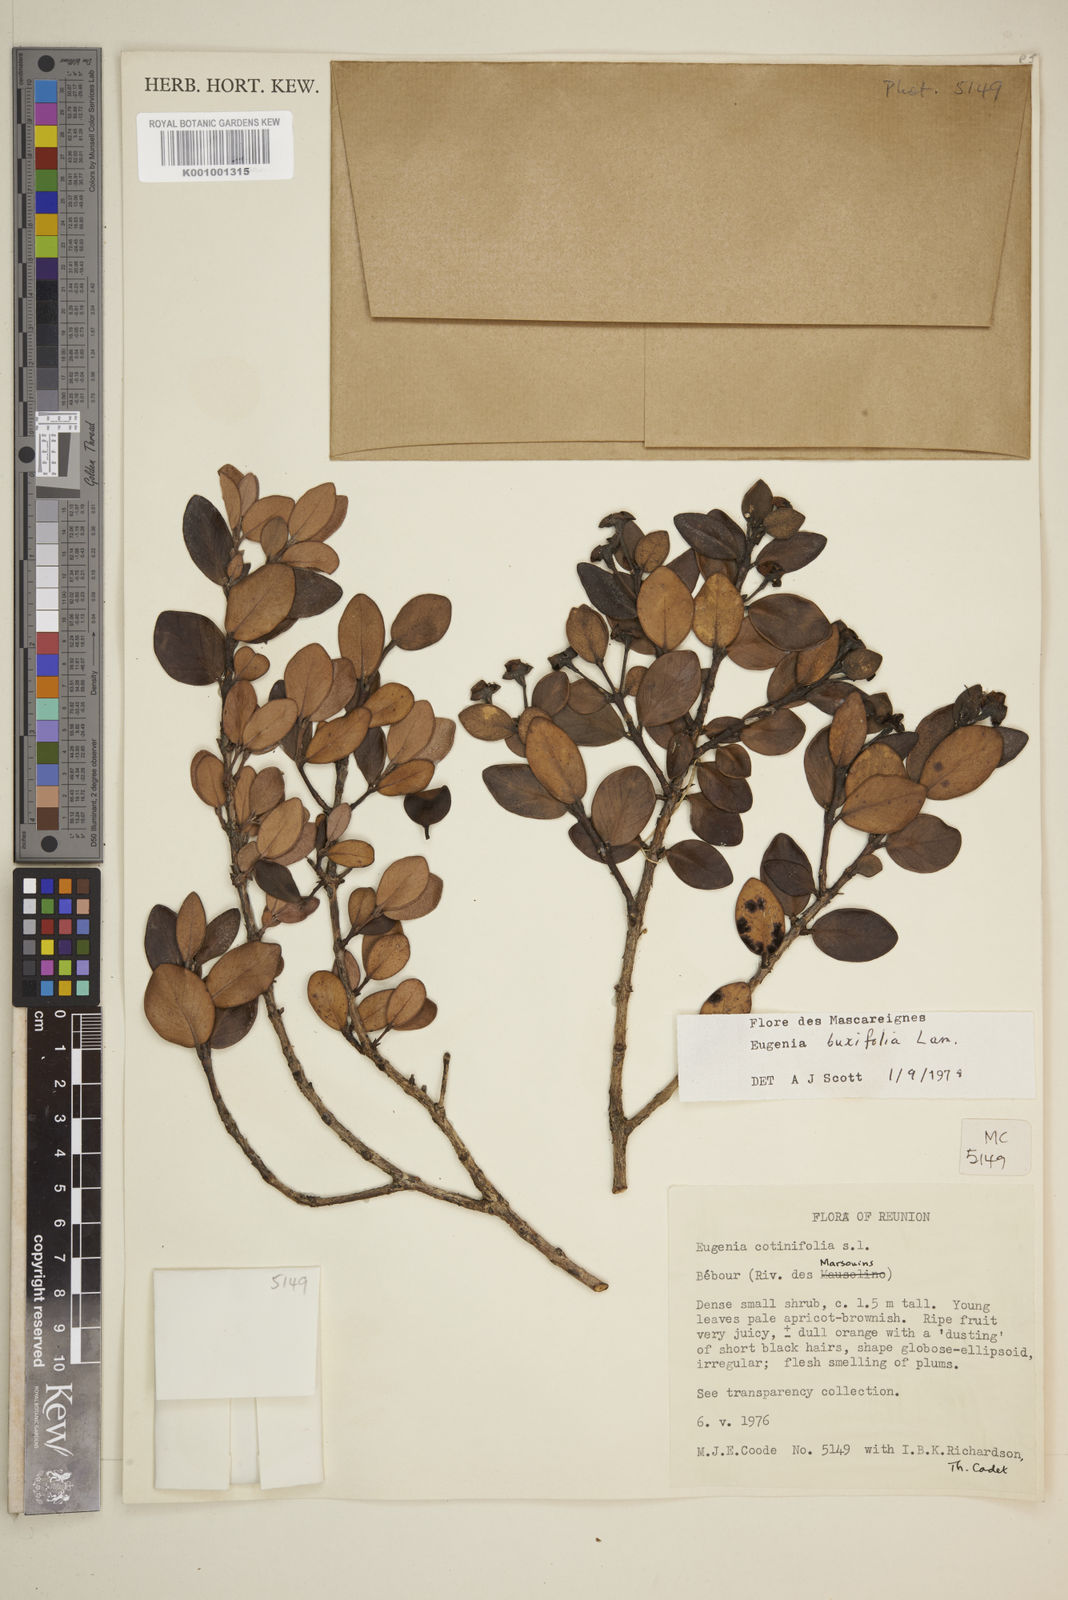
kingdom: Plantae
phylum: Tracheophyta
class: Magnoliopsida
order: Myrtales
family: Myrtaceae
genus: Eugenia
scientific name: Eugenia buxifolia
